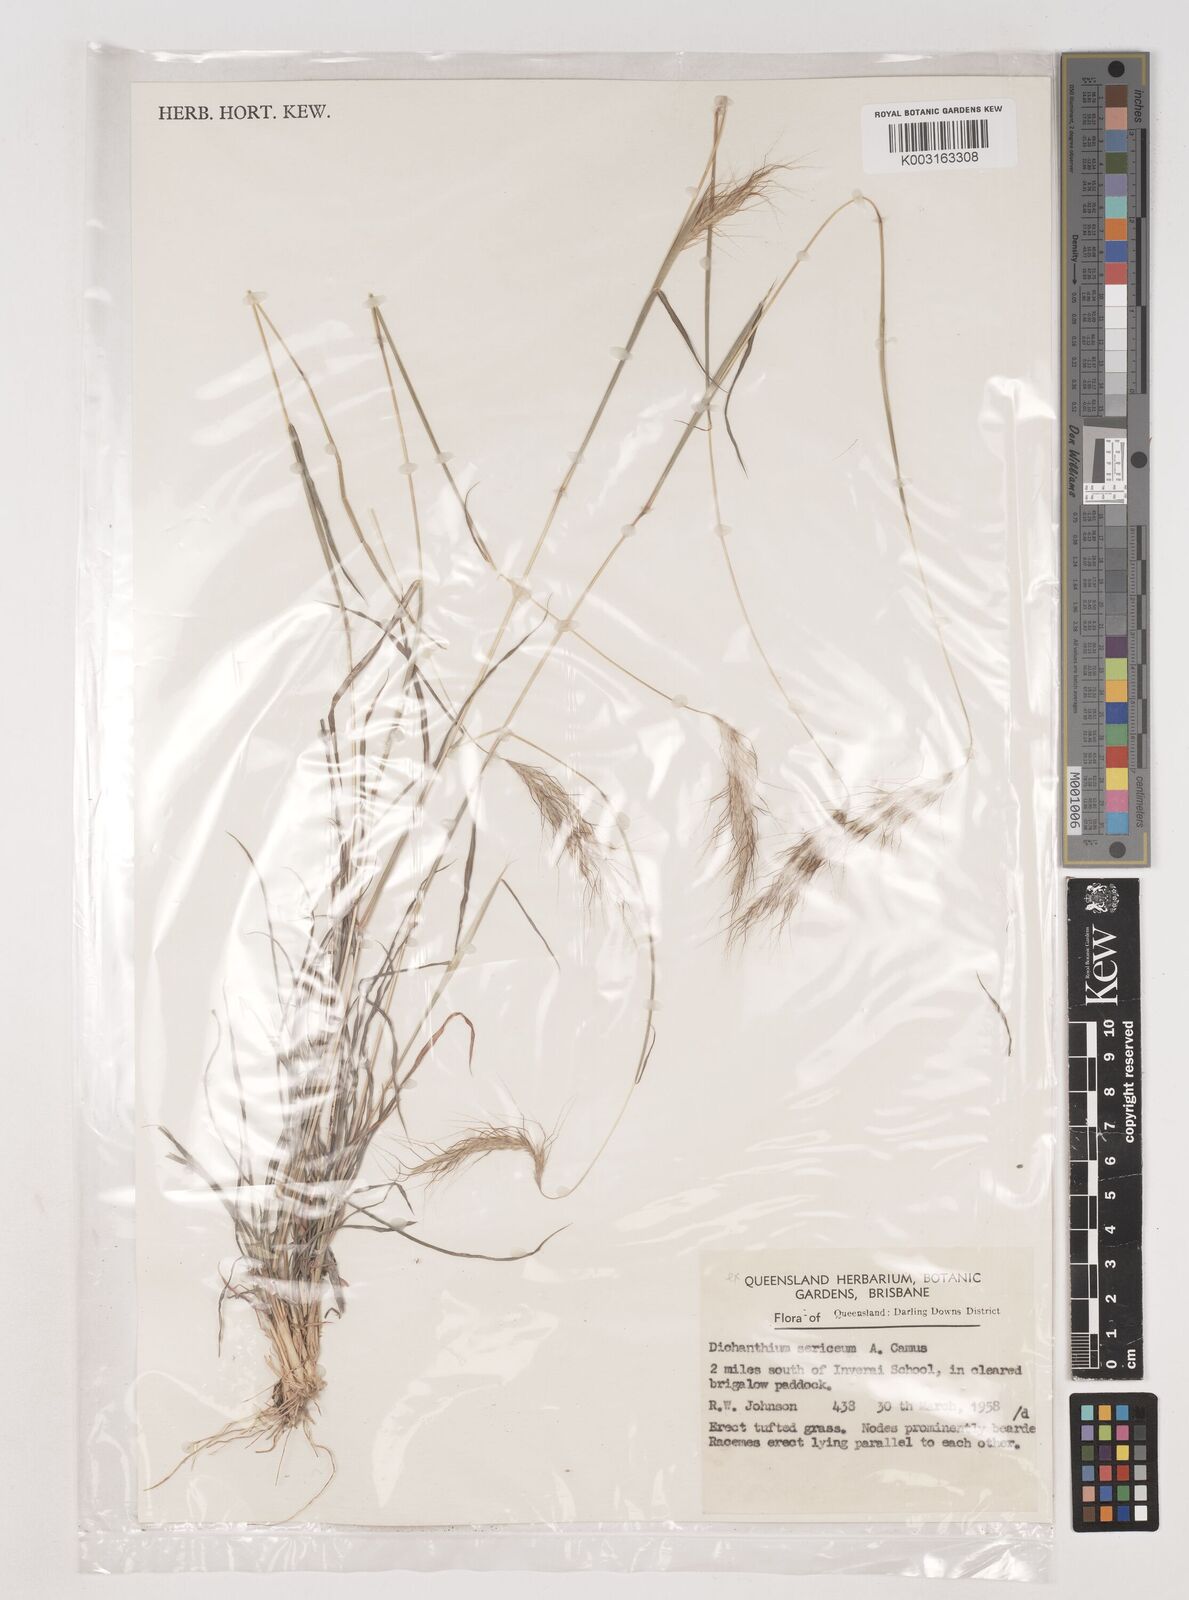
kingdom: Plantae
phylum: Tracheophyta
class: Liliopsida
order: Poales
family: Poaceae
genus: Dichanthium
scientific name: Dichanthium sericeum
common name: Silky bluestem
